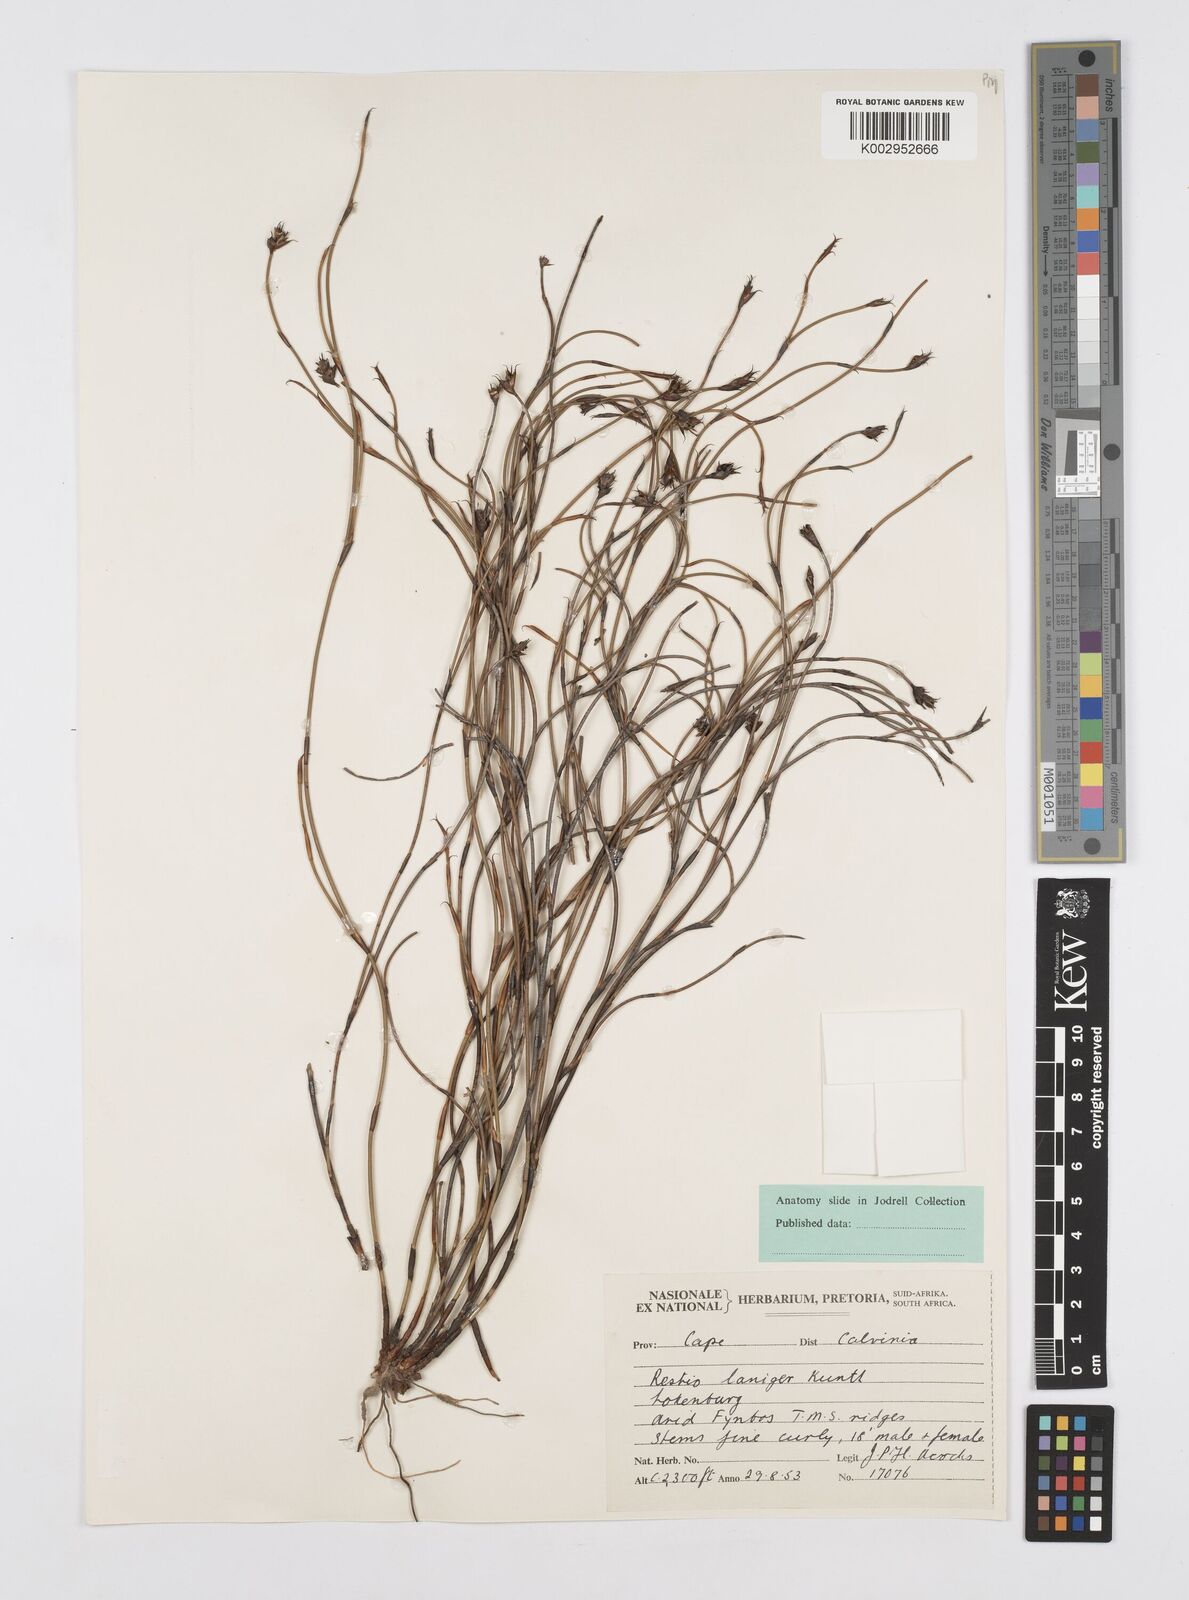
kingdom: Plantae
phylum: Tracheophyta
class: Liliopsida
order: Poales
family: Restionaceae
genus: Restio
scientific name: Restio laniger
